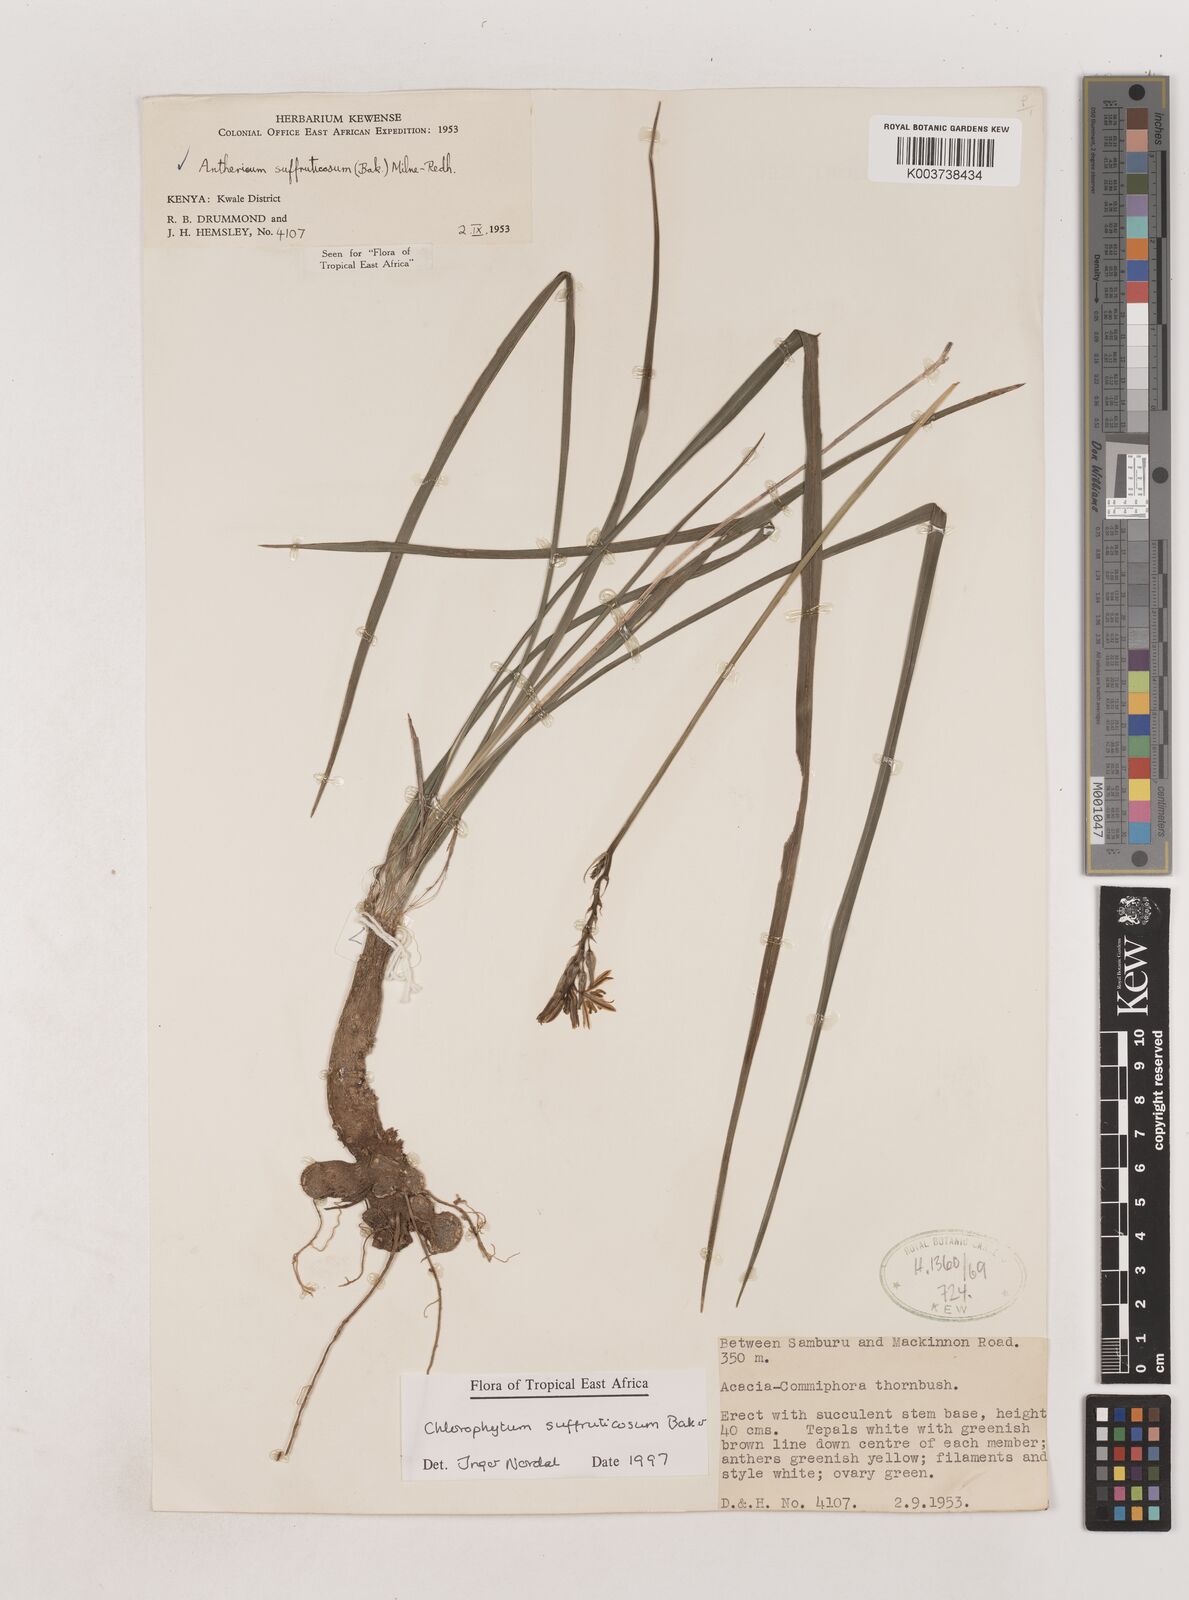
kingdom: Plantae
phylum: Tracheophyta
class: Liliopsida
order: Asparagales
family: Asparagaceae
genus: Chlorophytum
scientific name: Chlorophytum suffruticosum
